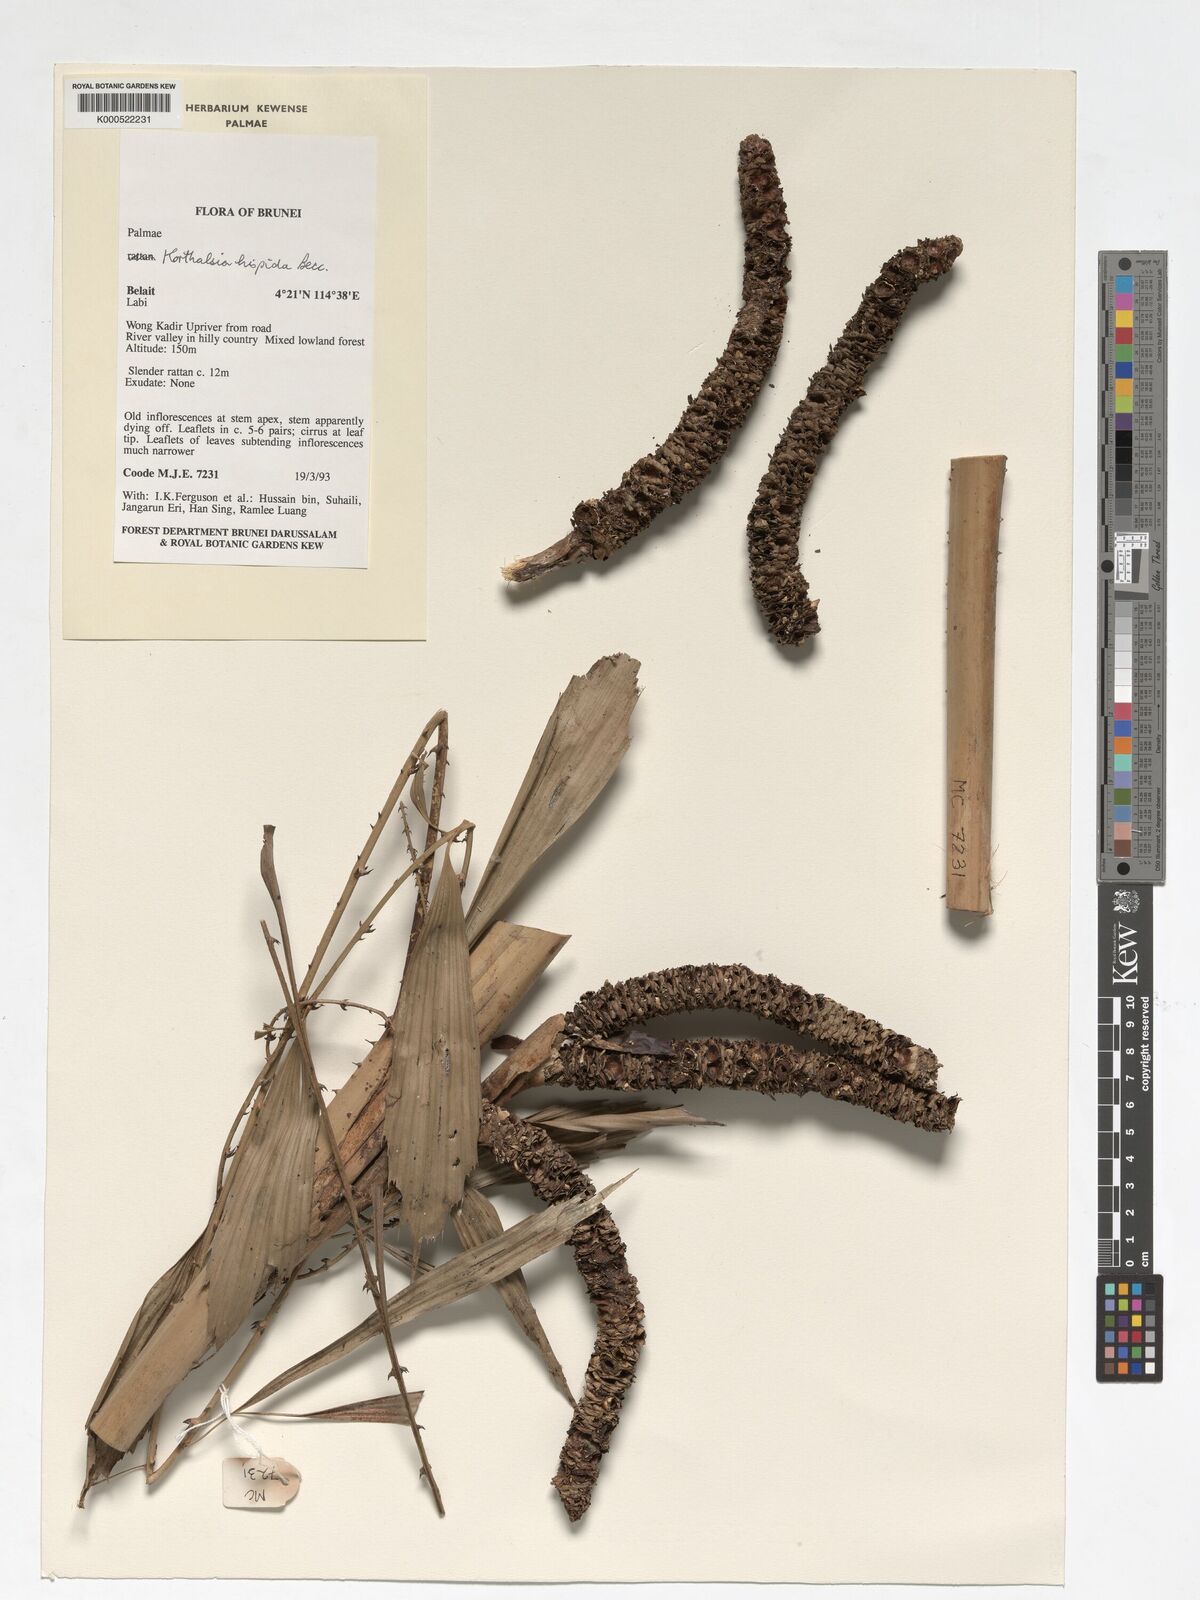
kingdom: Plantae
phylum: Tracheophyta
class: Liliopsida
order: Arecales
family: Arecaceae
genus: Korthalsia
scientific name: Korthalsia hispida
